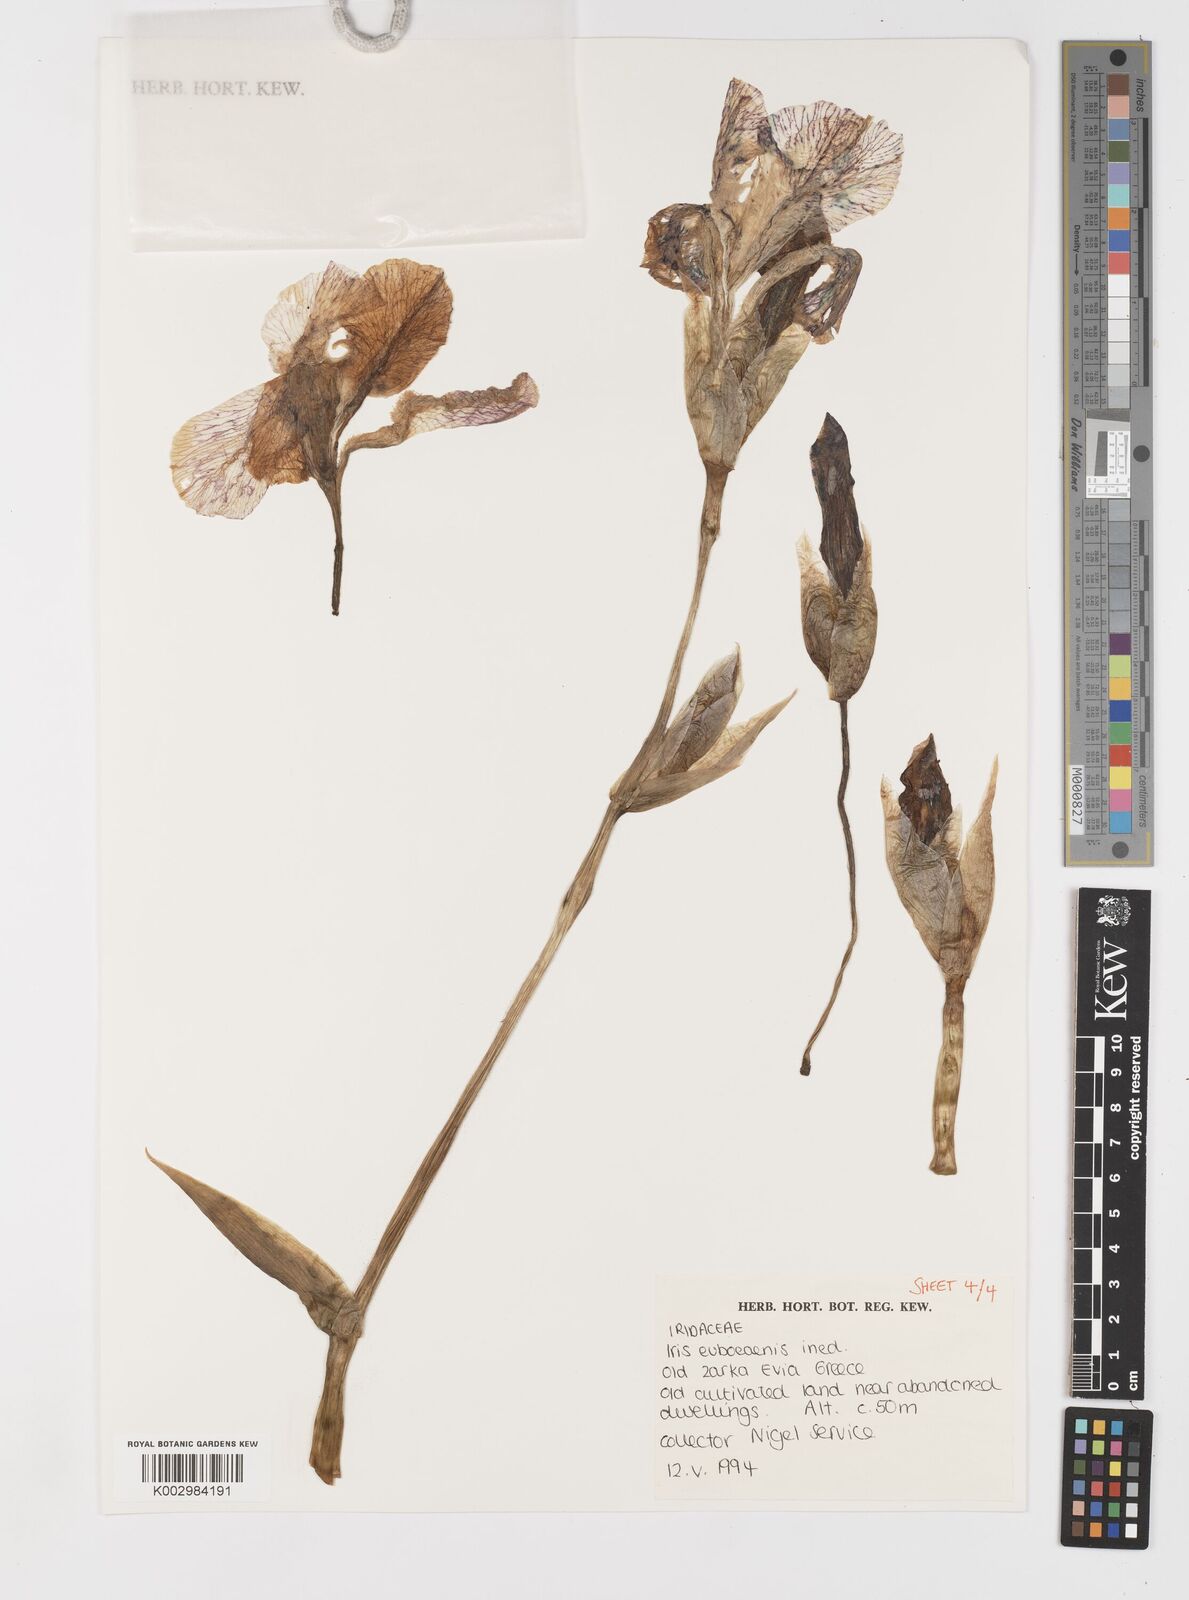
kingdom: Plantae
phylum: Tracheophyta
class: Liliopsida
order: Asparagales
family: Iridaceae
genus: Iris
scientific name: Iris
